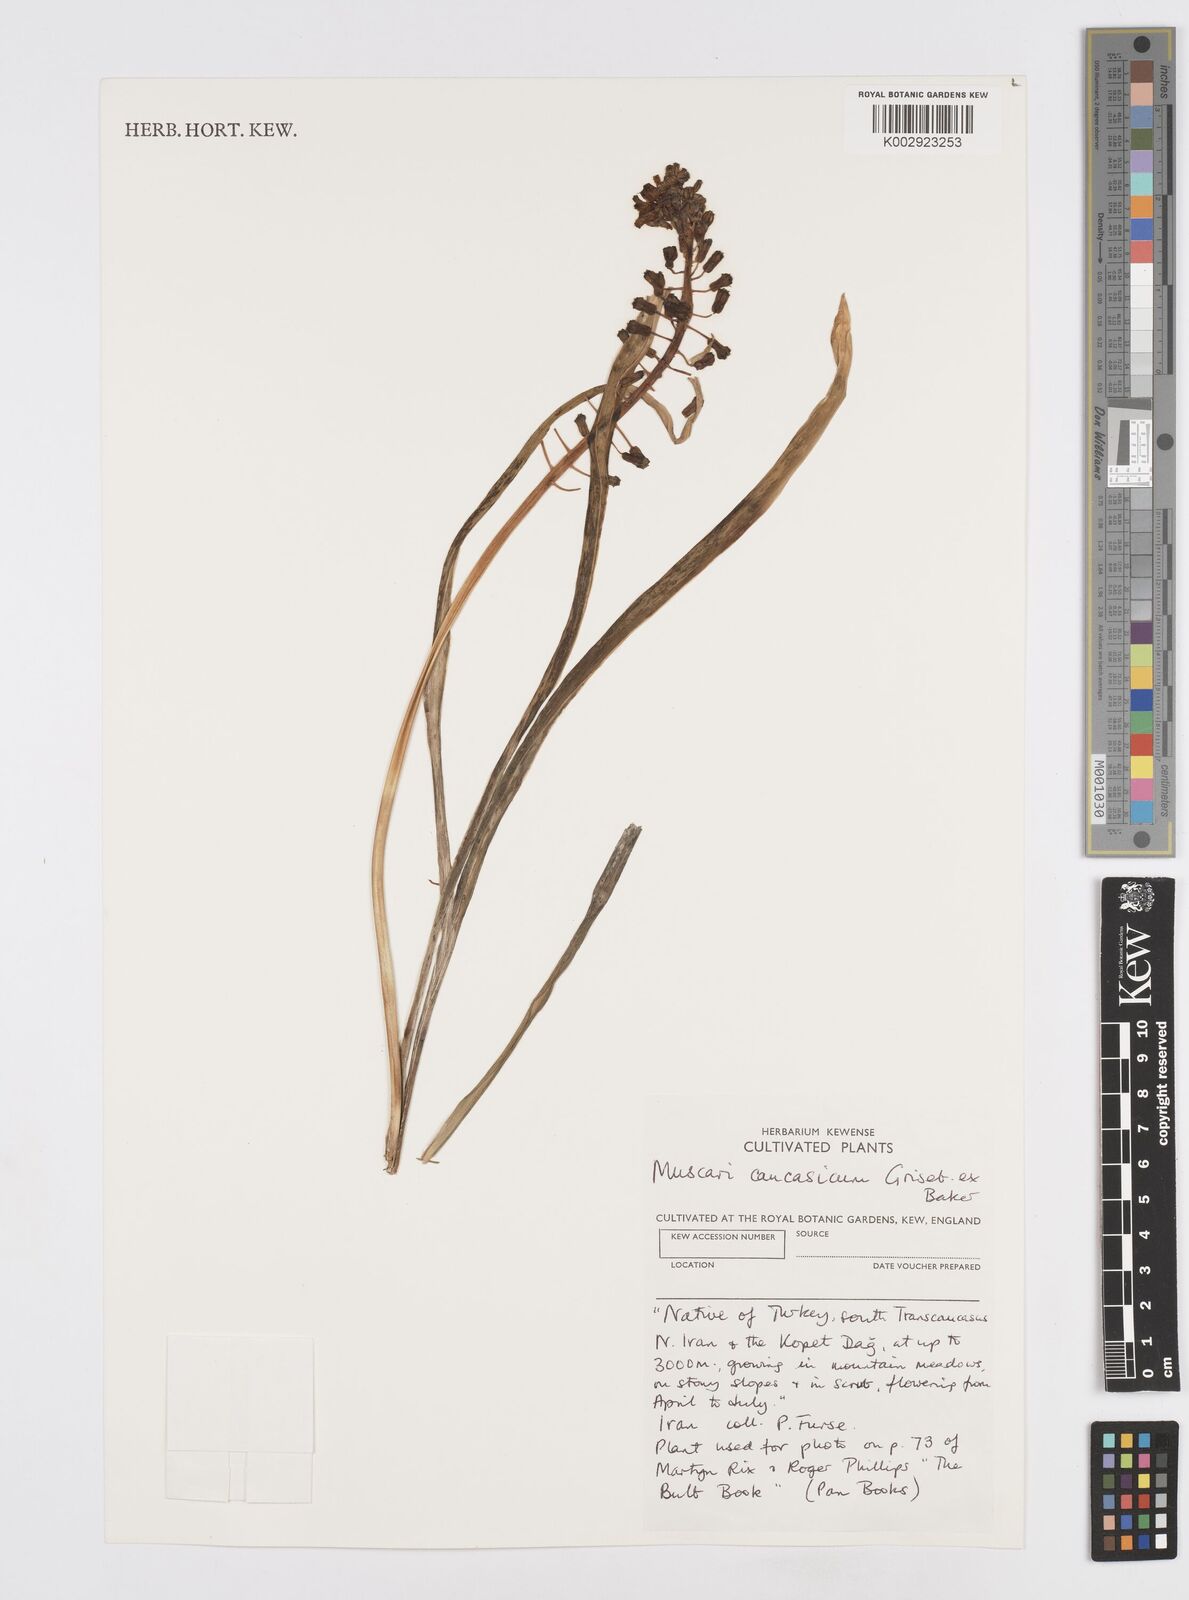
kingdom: Plantae
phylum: Tracheophyta
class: Liliopsida
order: Asparagales
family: Asparagaceae
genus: Muscari
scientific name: Muscari caucasicum
